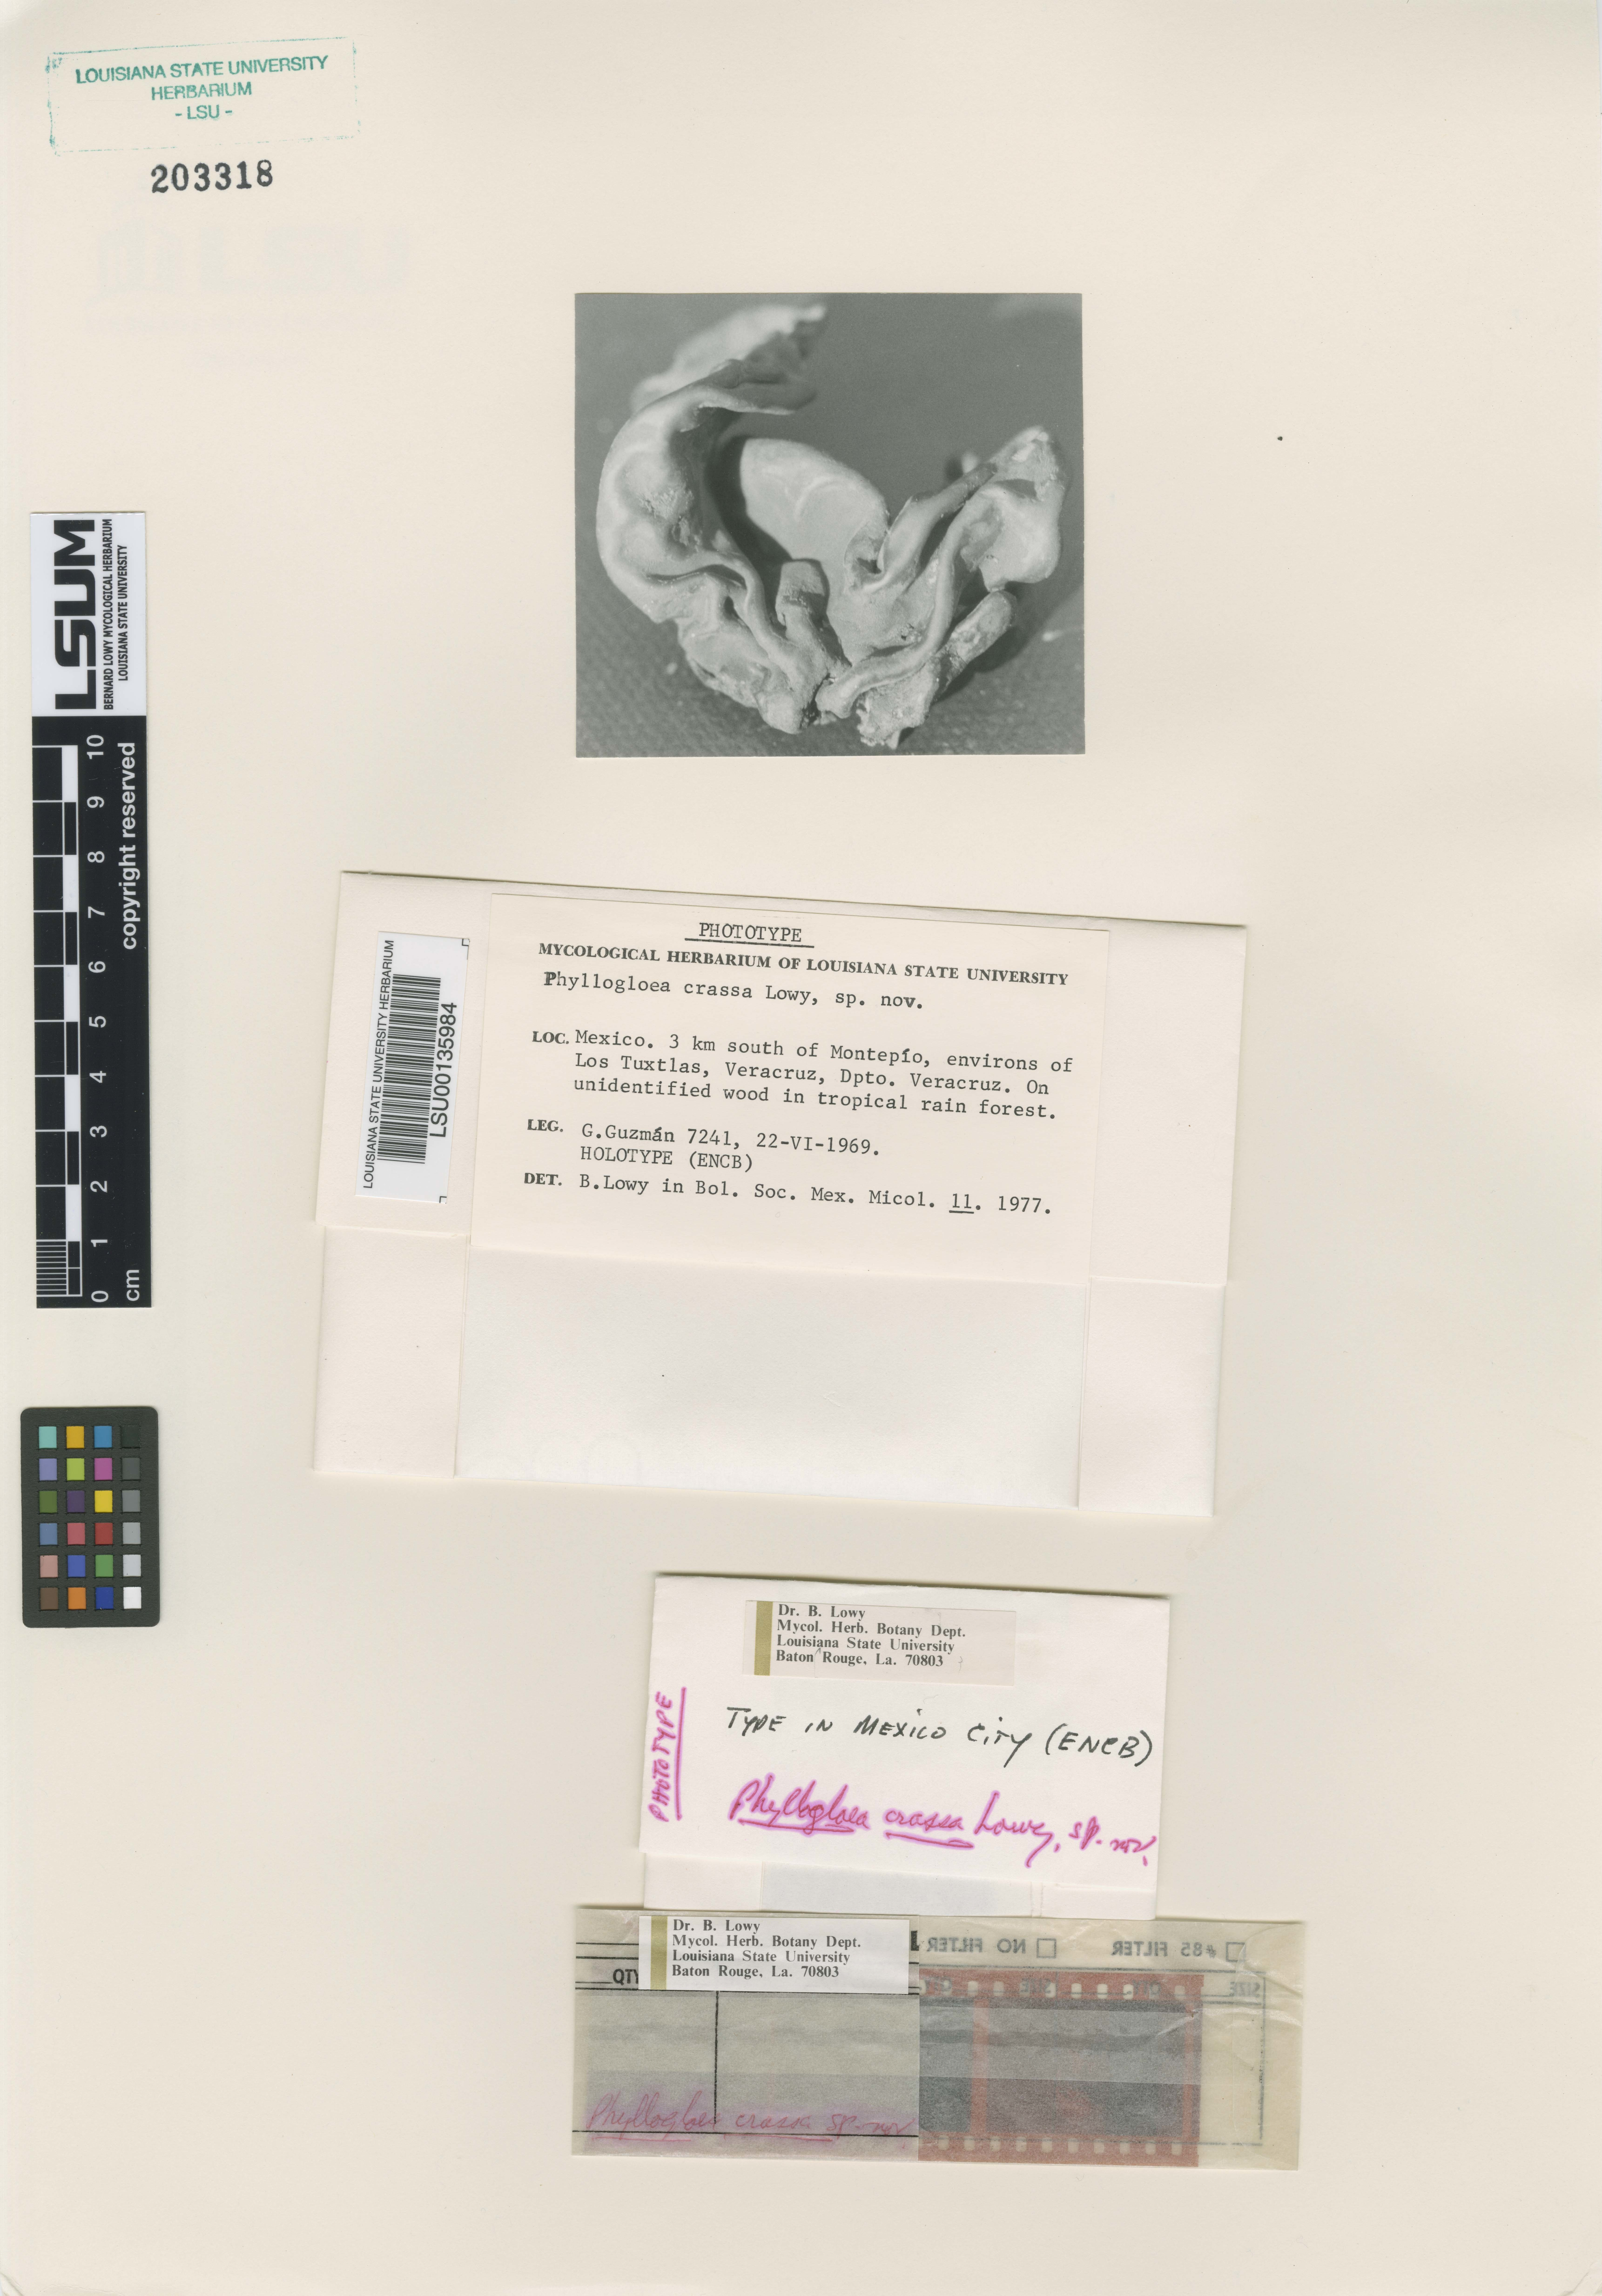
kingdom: Fungi
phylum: Basidiomycota
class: Pucciniomycetes
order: Platygloeales
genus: Phyllogloea
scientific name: Phyllogloea
